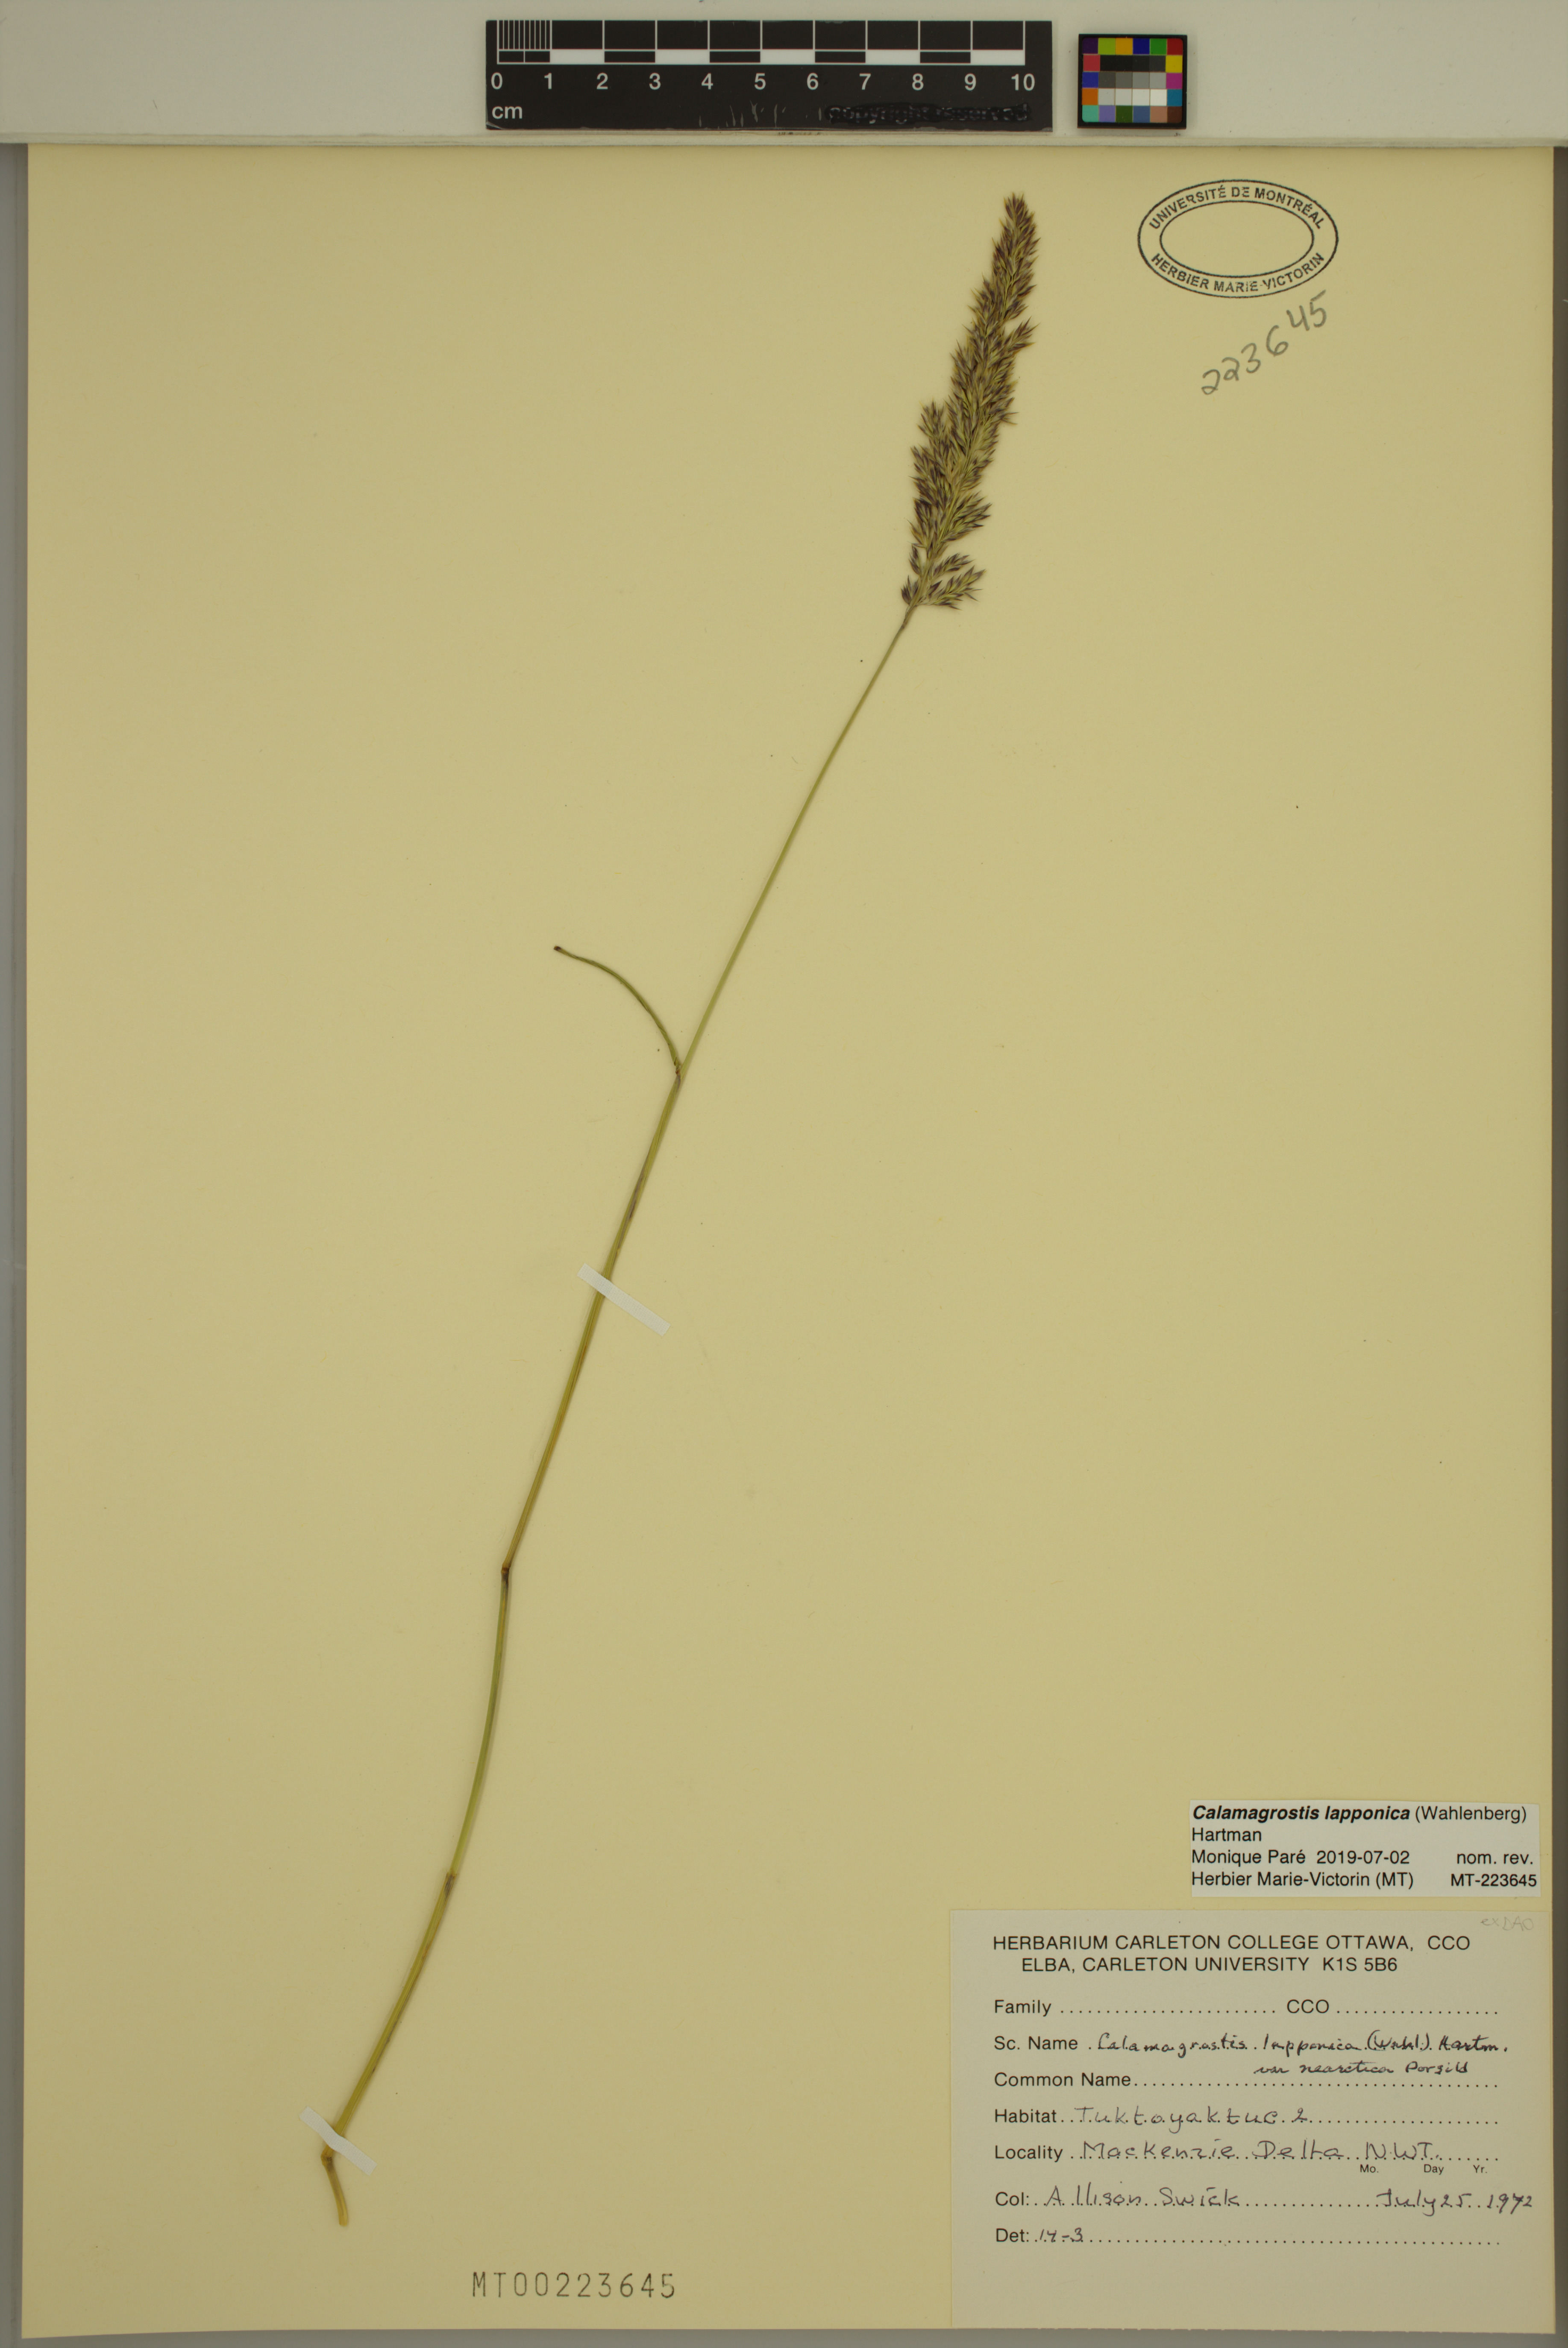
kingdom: Plantae
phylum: Tracheophyta
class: Liliopsida
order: Poales
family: Poaceae
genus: Calamagrostis
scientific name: Calamagrostis lapponica
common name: Lapland reedgrass
